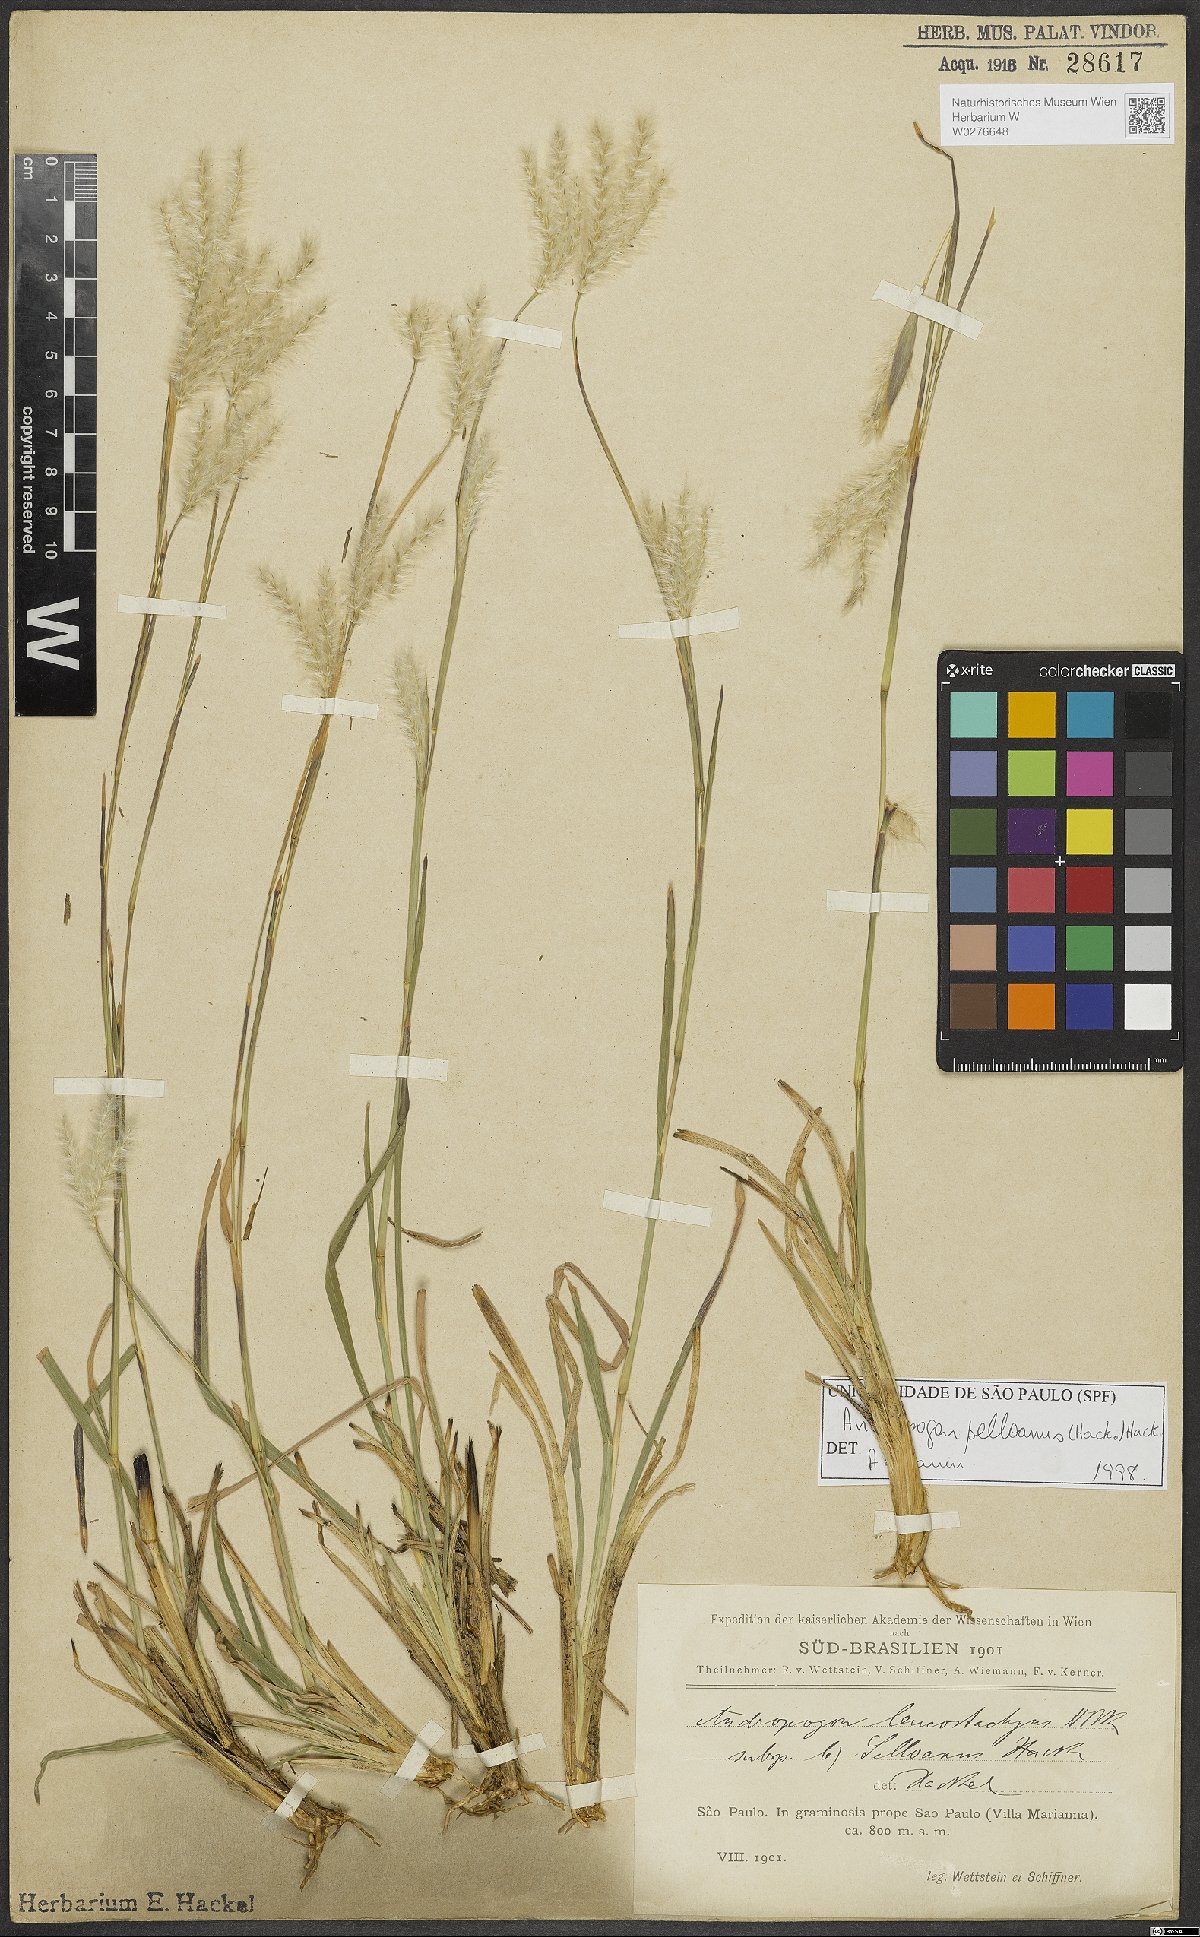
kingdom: Plantae
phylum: Tracheophyta
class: Liliopsida
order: Poales
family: Poaceae
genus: Andropogon
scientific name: Andropogon selloanus
